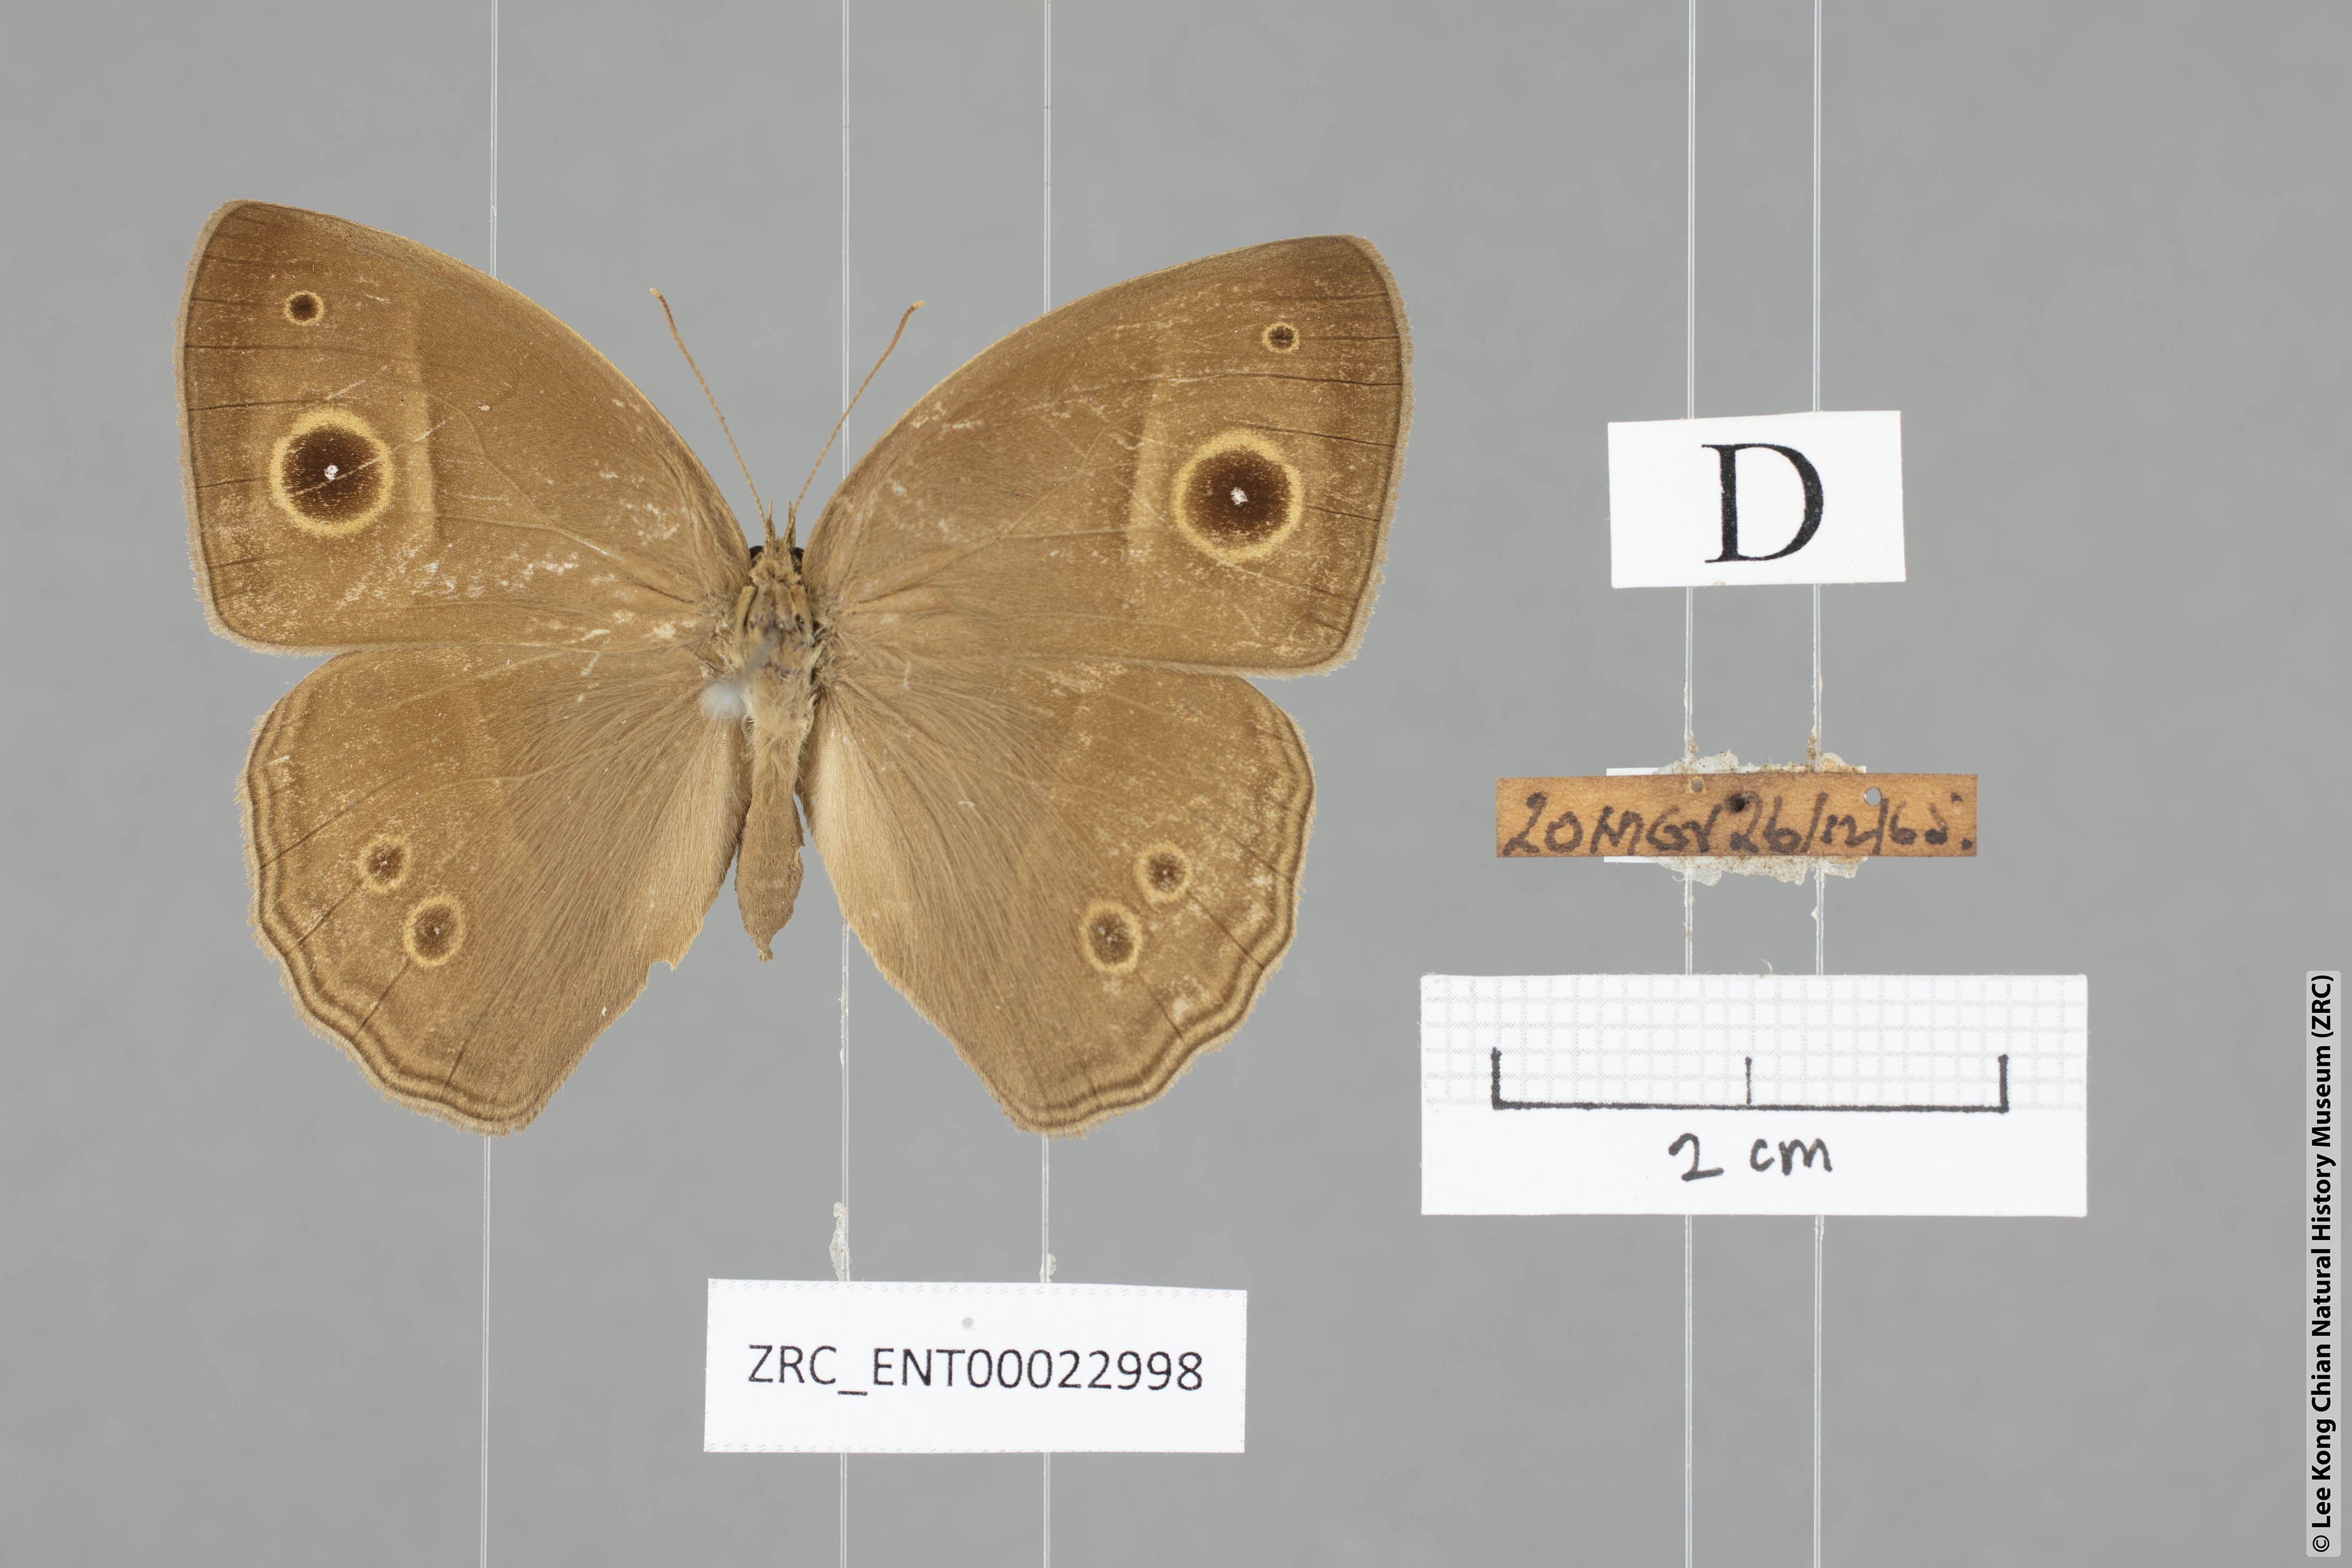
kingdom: Animalia
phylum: Arthropoda
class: Insecta
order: Lepidoptera
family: Nymphalidae
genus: Mycalesis
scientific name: Mycalesis perseoides
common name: Burmese bushbrown
